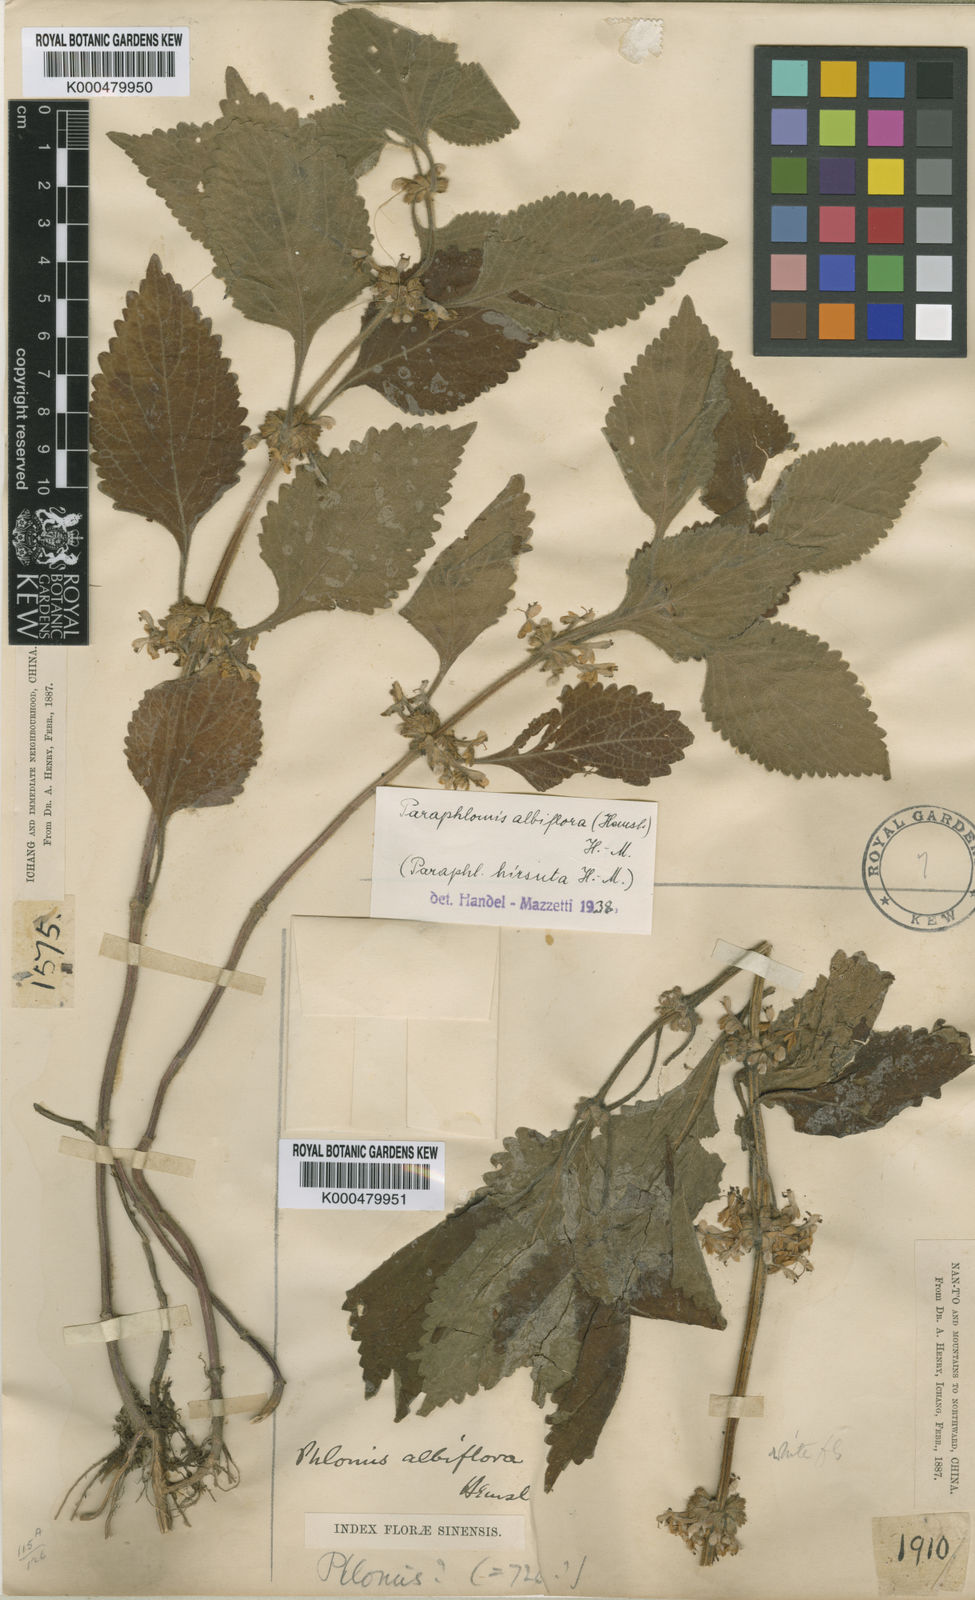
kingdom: Plantae
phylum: Tracheophyta
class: Magnoliopsida
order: Lamiales
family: Lamiaceae
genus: Paraphlomis
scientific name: Paraphlomis albiflora
